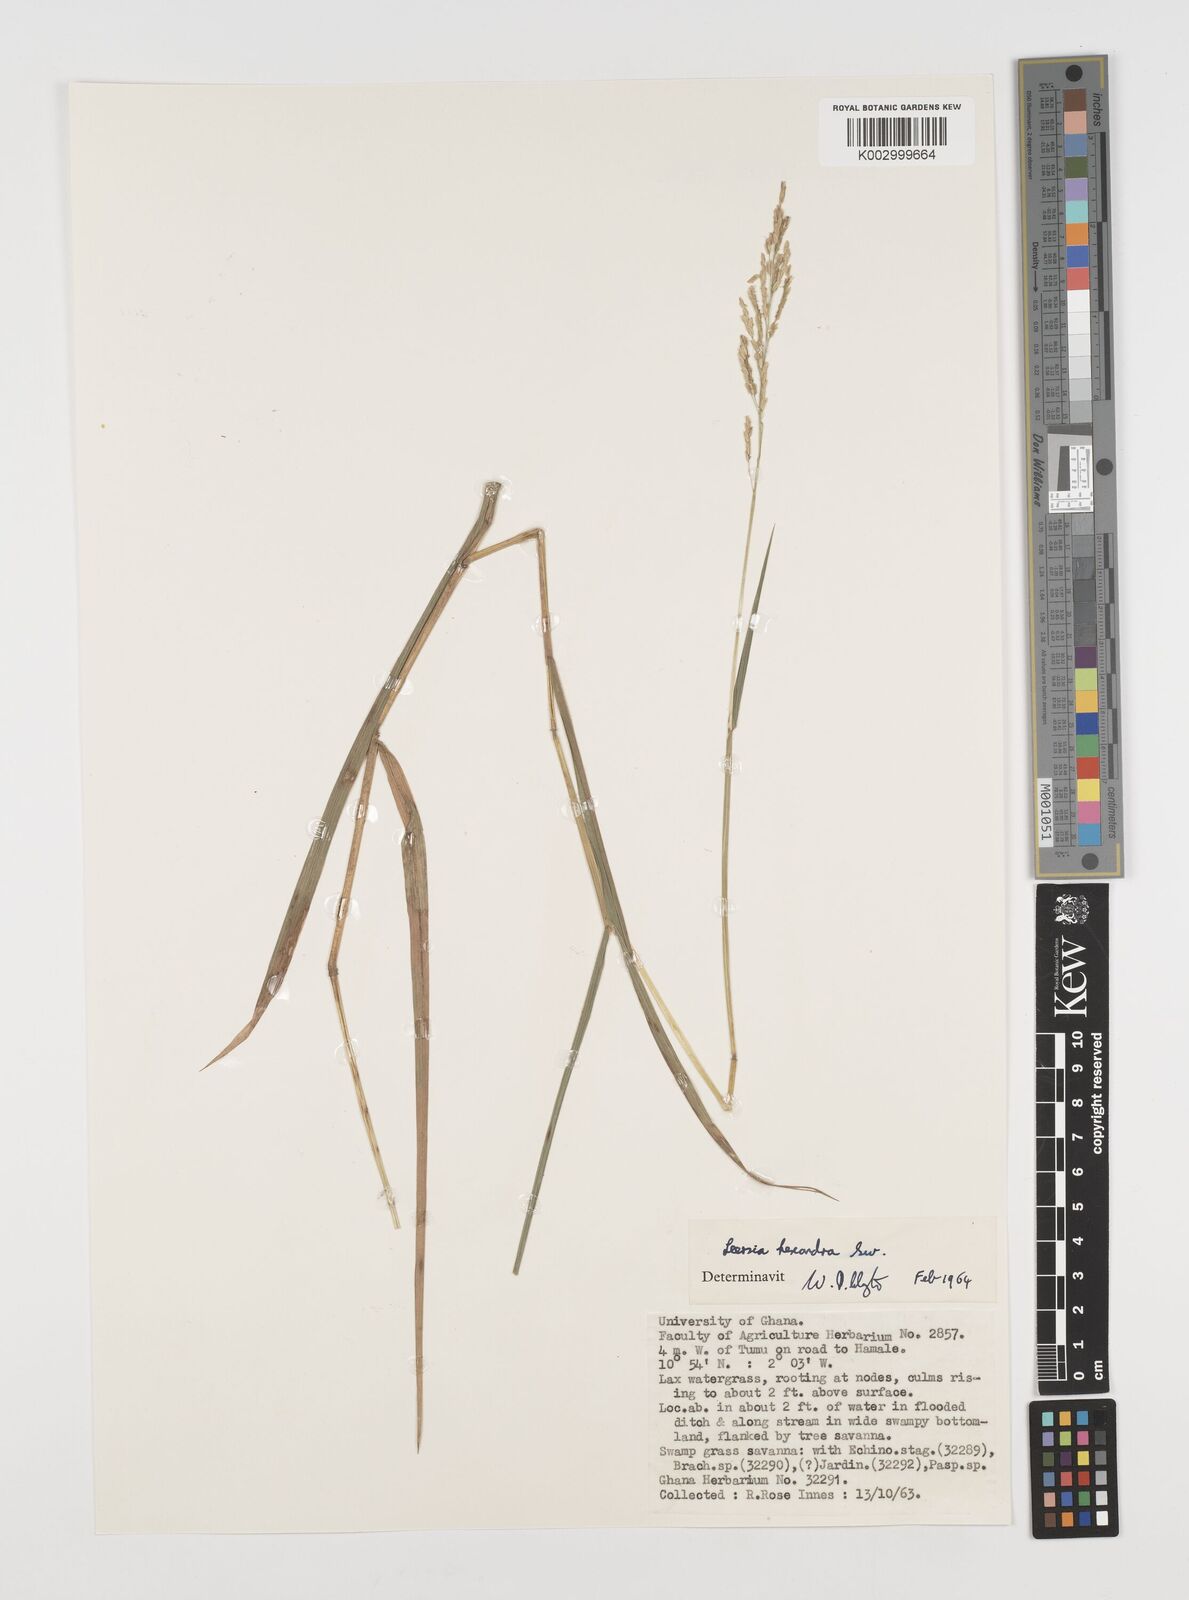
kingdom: Plantae
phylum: Tracheophyta
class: Liliopsida
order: Poales
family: Poaceae
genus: Leersia
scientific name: Leersia hexandra
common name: Southern cut grass
